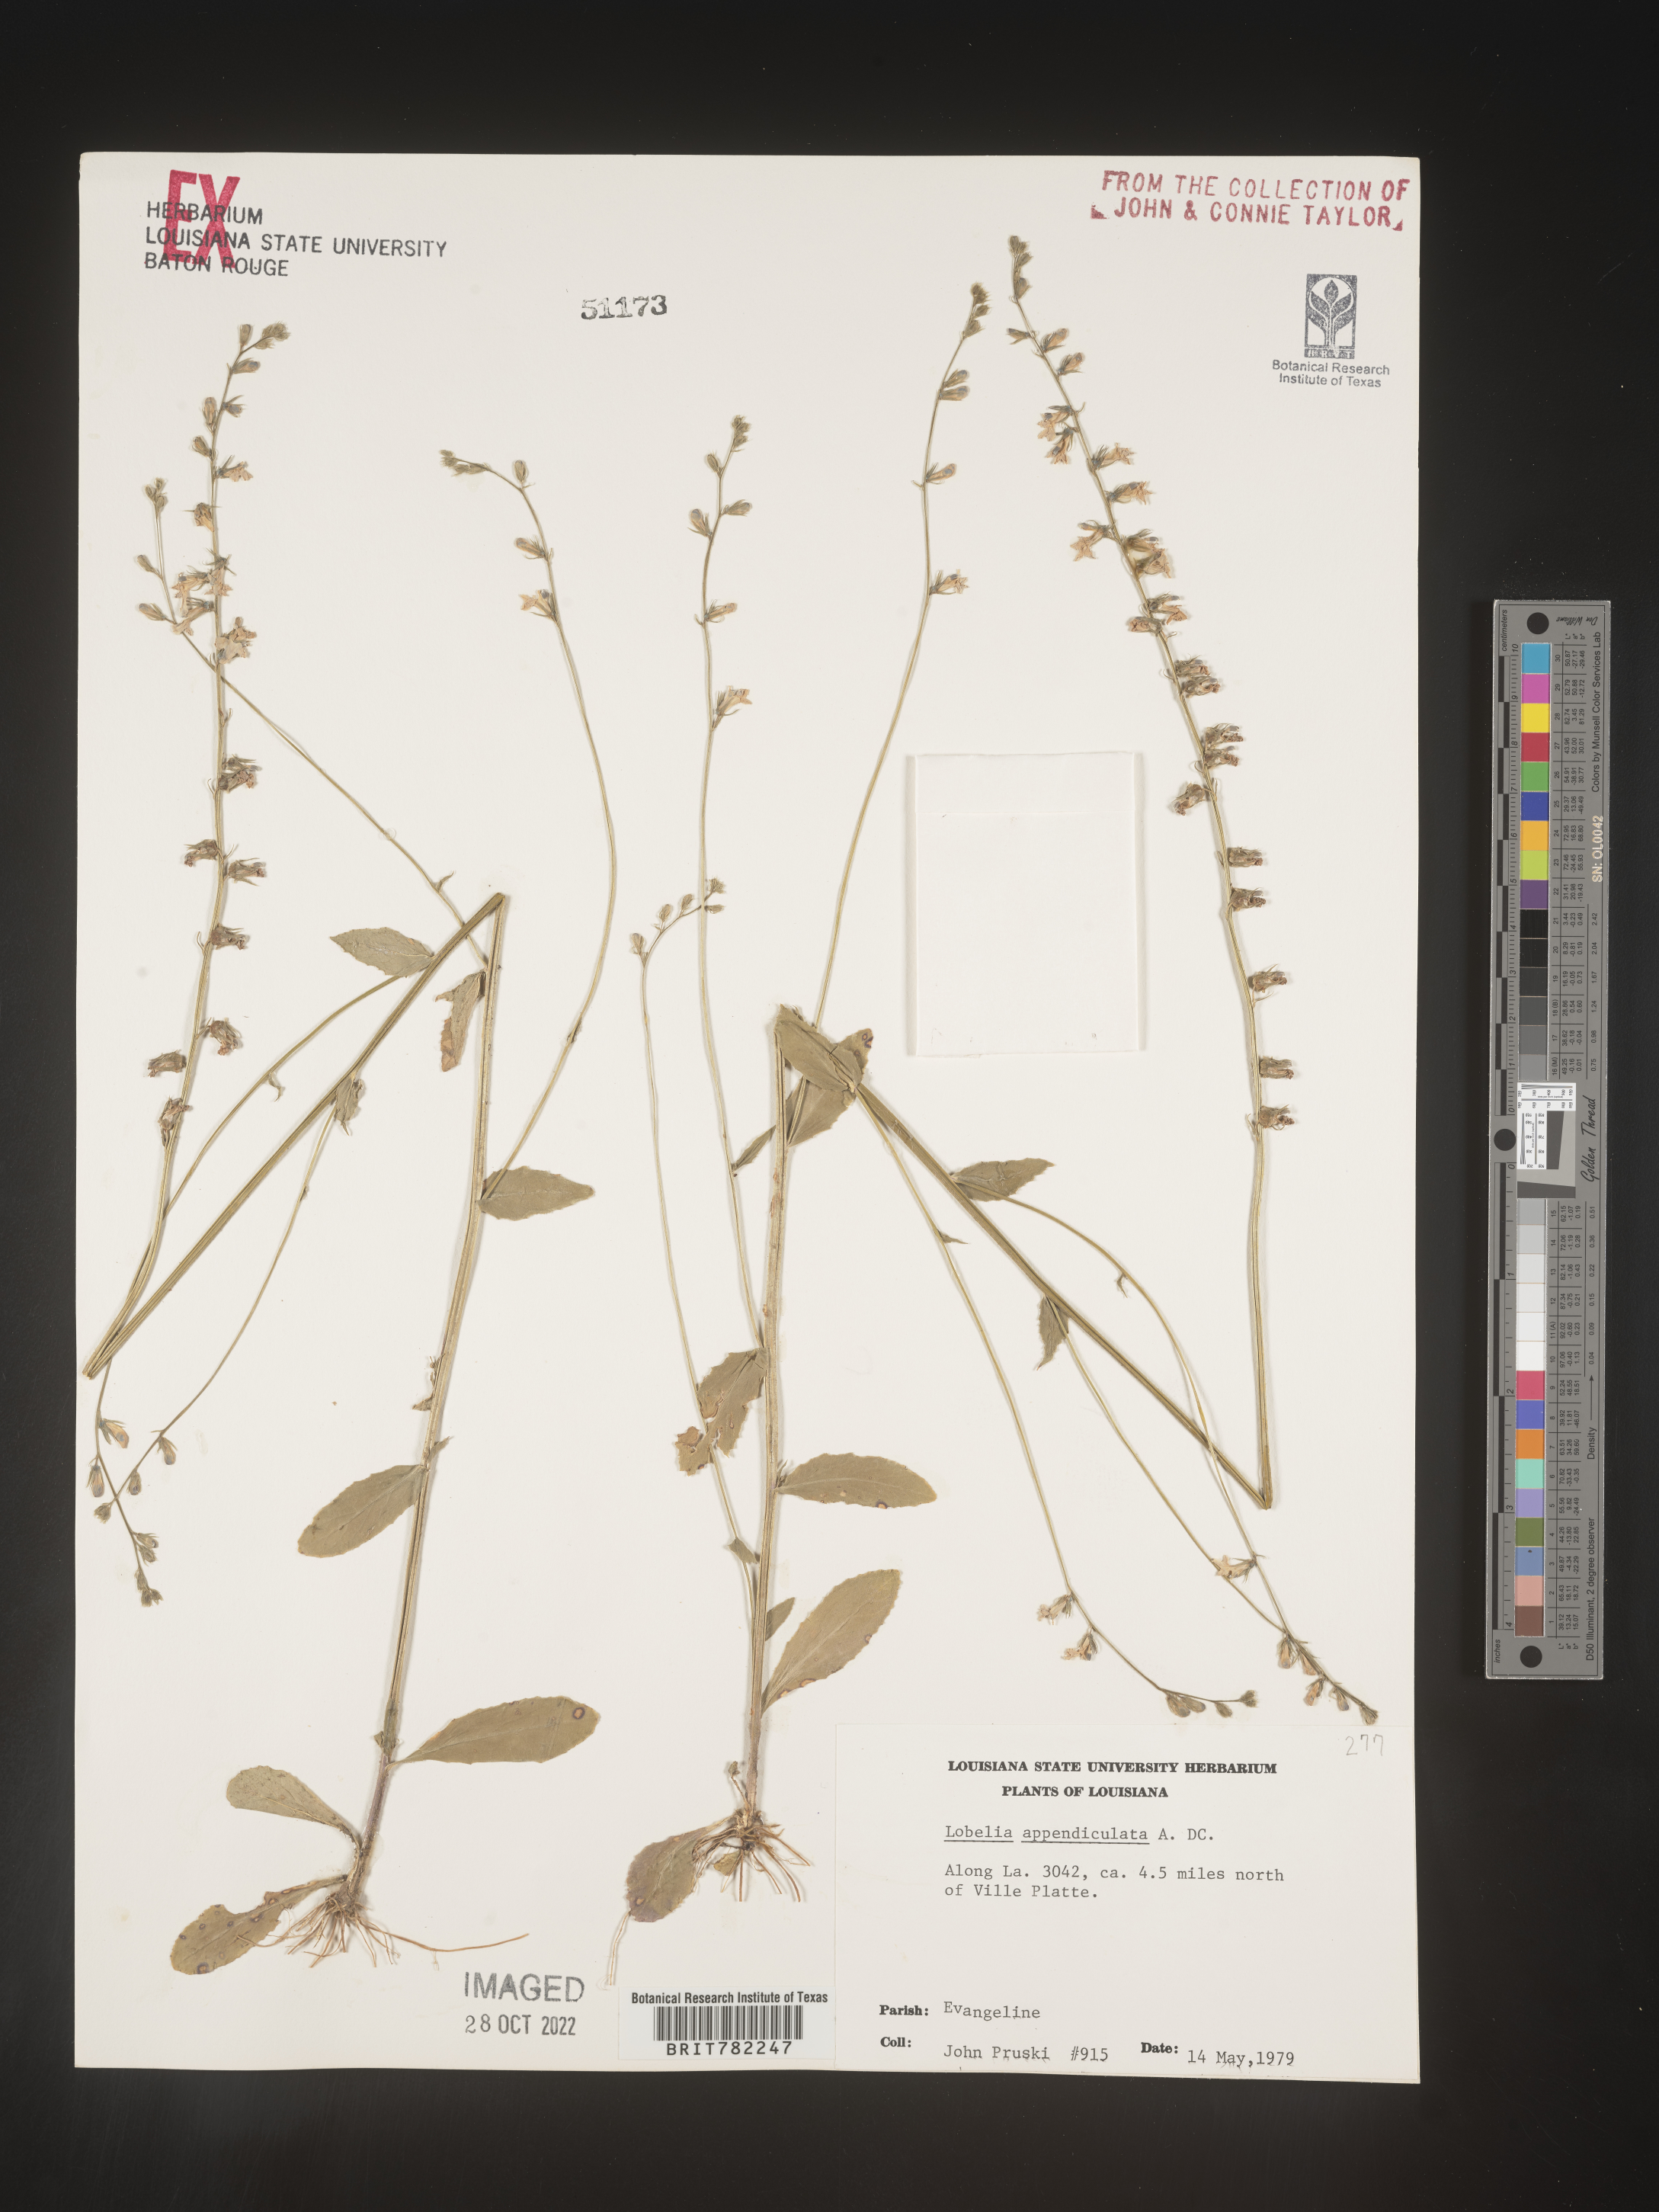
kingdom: Plantae
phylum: Tracheophyta
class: Magnoliopsida
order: Asterales
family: Campanulaceae
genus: Lobelia
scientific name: Lobelia appendiculata
